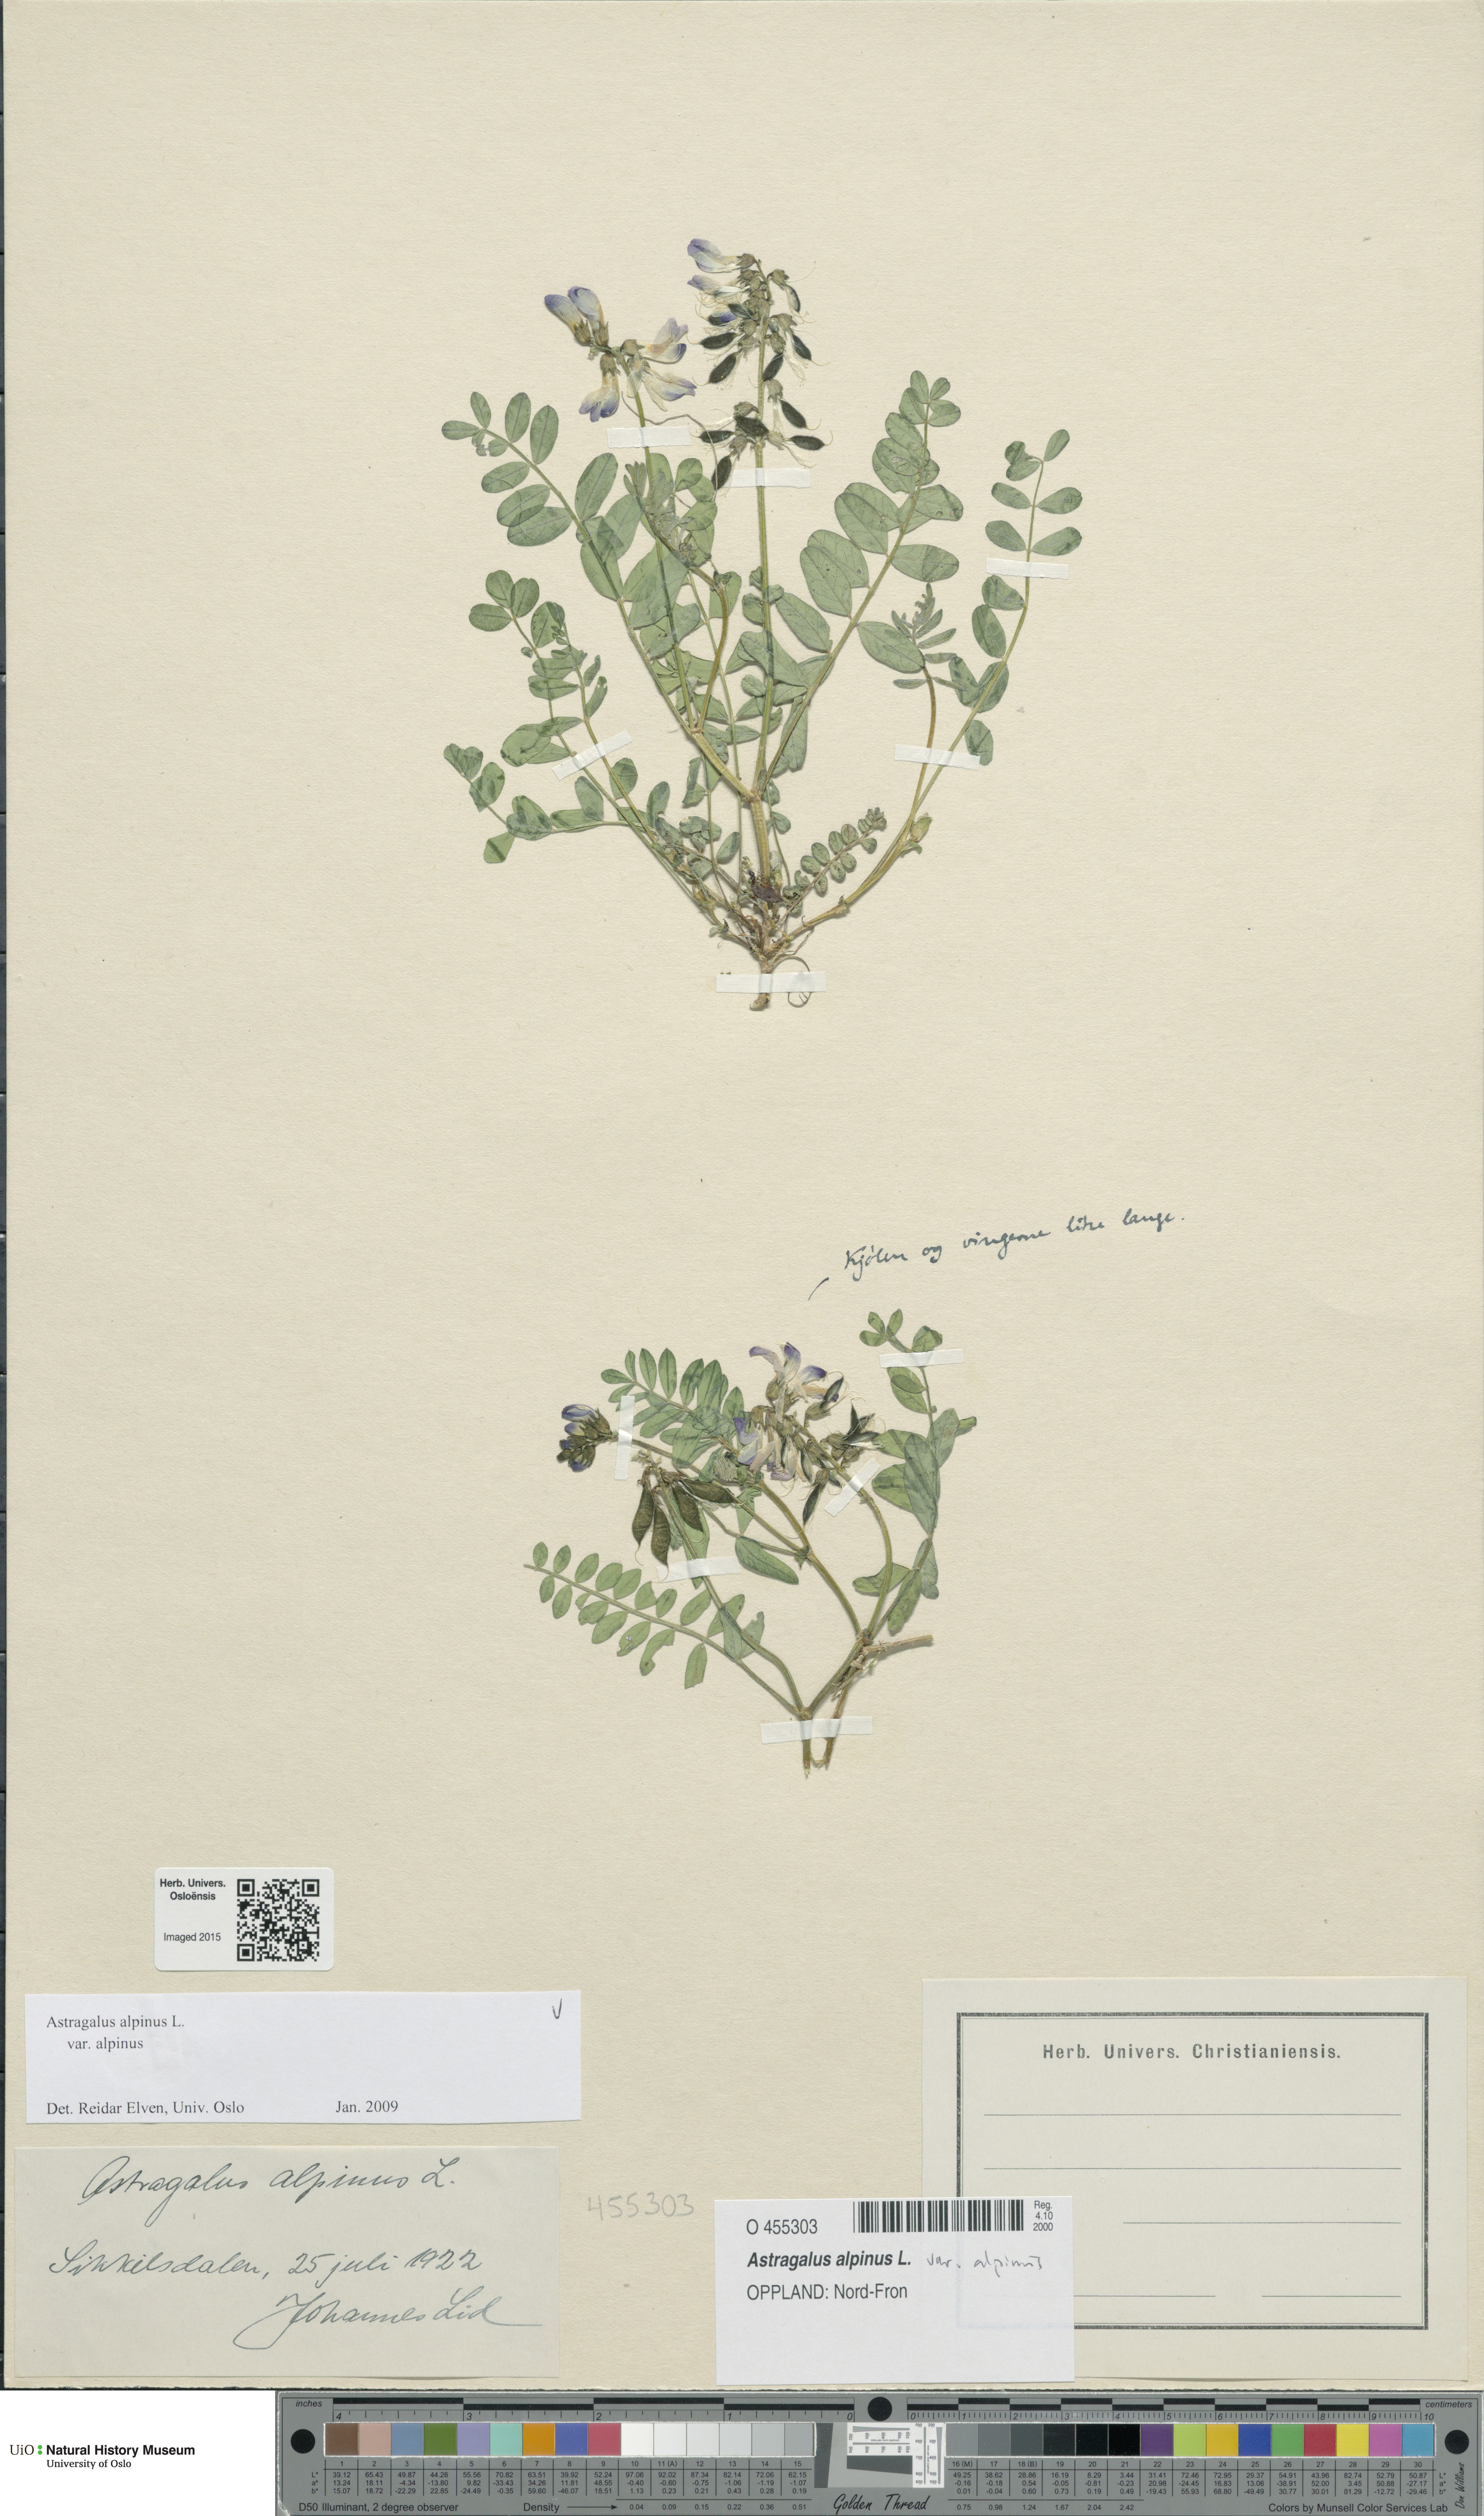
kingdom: Plantae
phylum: Tracheophyta
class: Magnoliopsida
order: Fabales
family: Fabaceae
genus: Astragalus
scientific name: Astragalus alpinus
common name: Alpine milk-vetch
